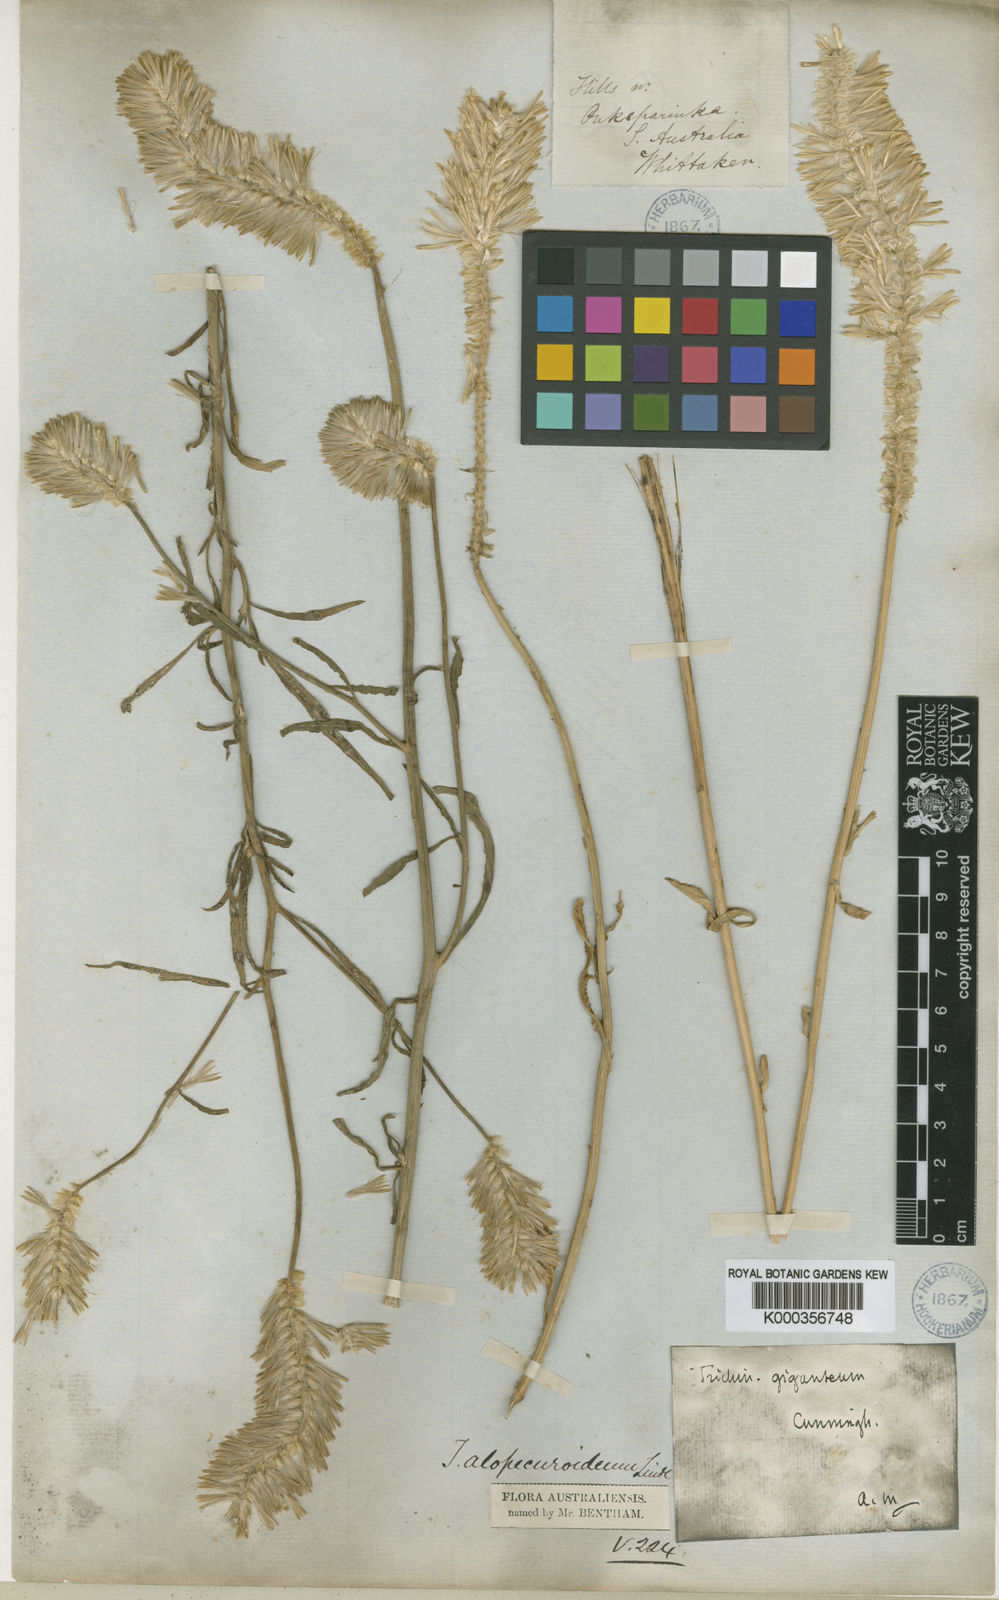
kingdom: Plantae
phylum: Tracheophyta
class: Magnoliopsida
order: Caryophyllales
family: Amaranthaceae
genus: Ptilotus
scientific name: Ptilotus polystachyus
